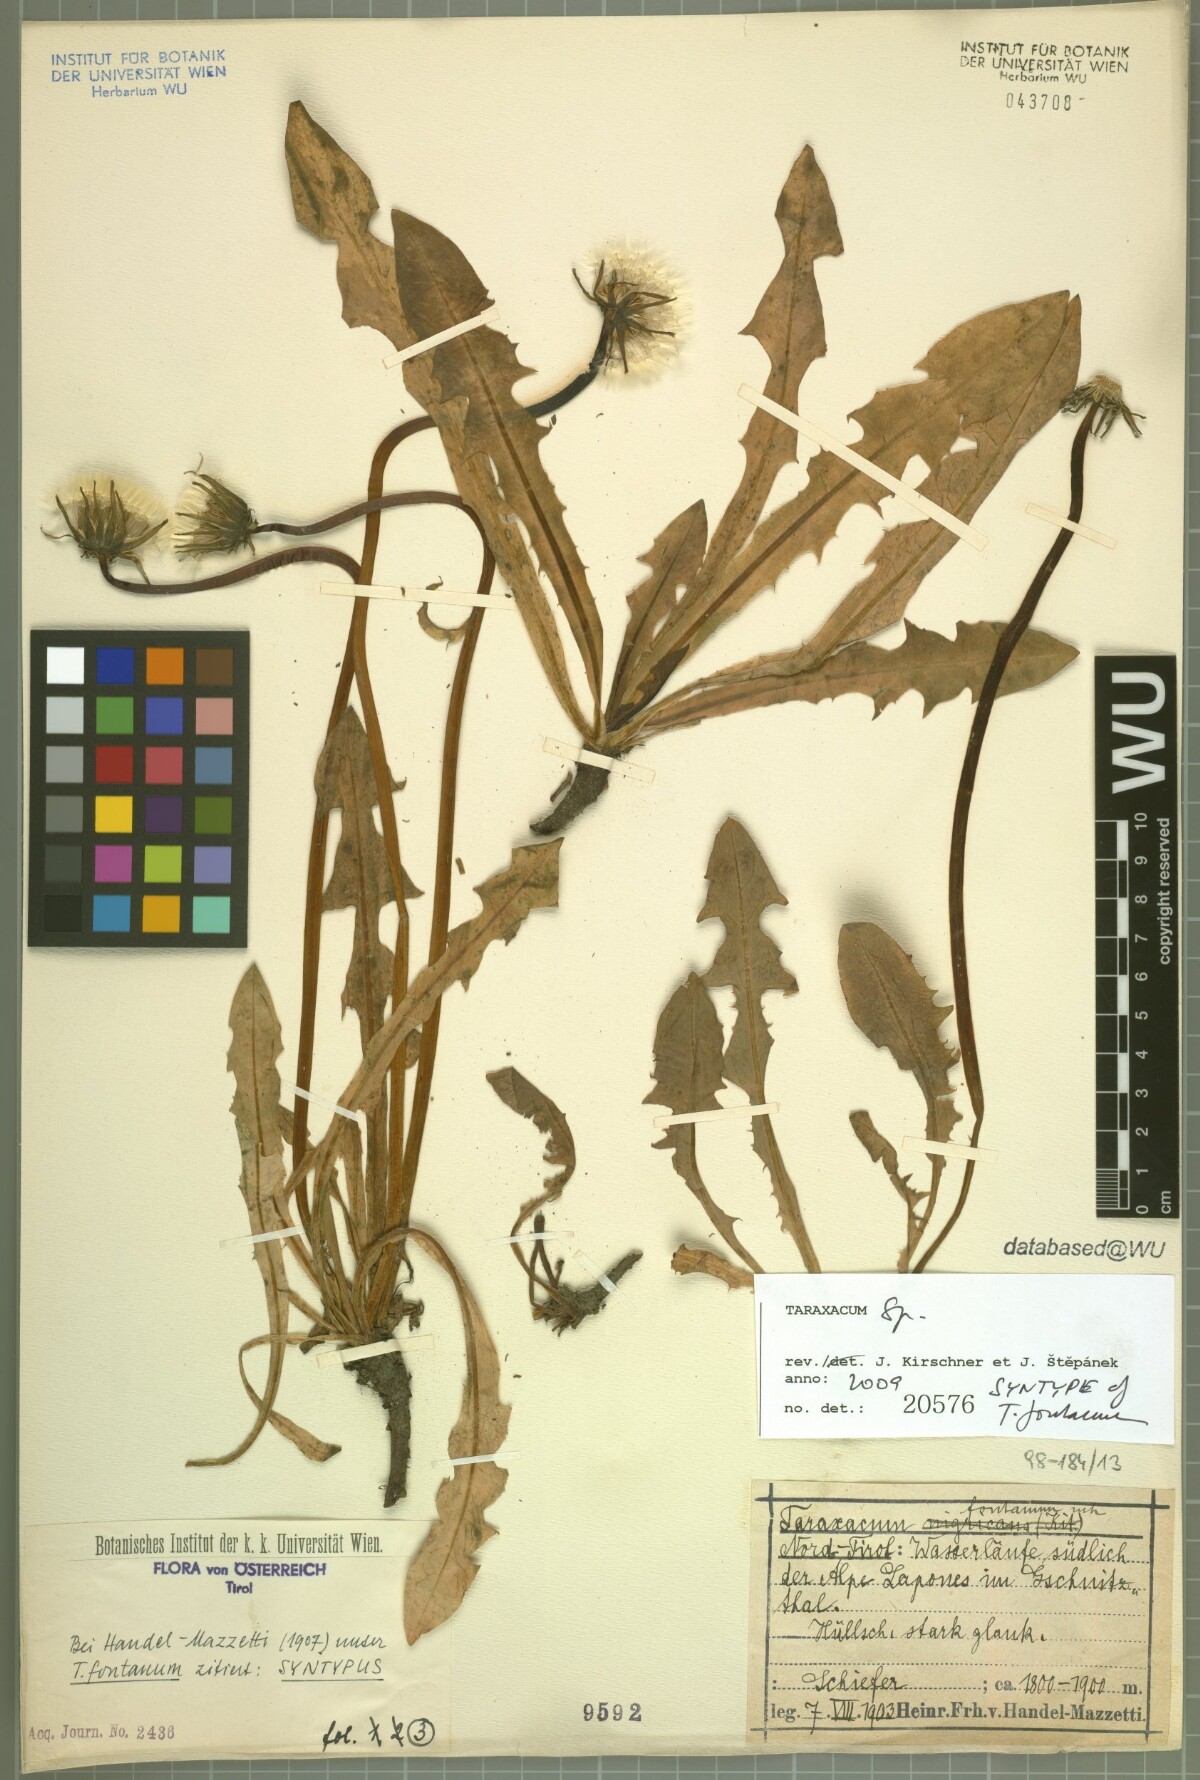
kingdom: Plantae
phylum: Tracheophyta
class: Magnoliopsida
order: Asterales
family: Asteraceae
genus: Taraxacum
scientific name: Taraxacum fontanum
